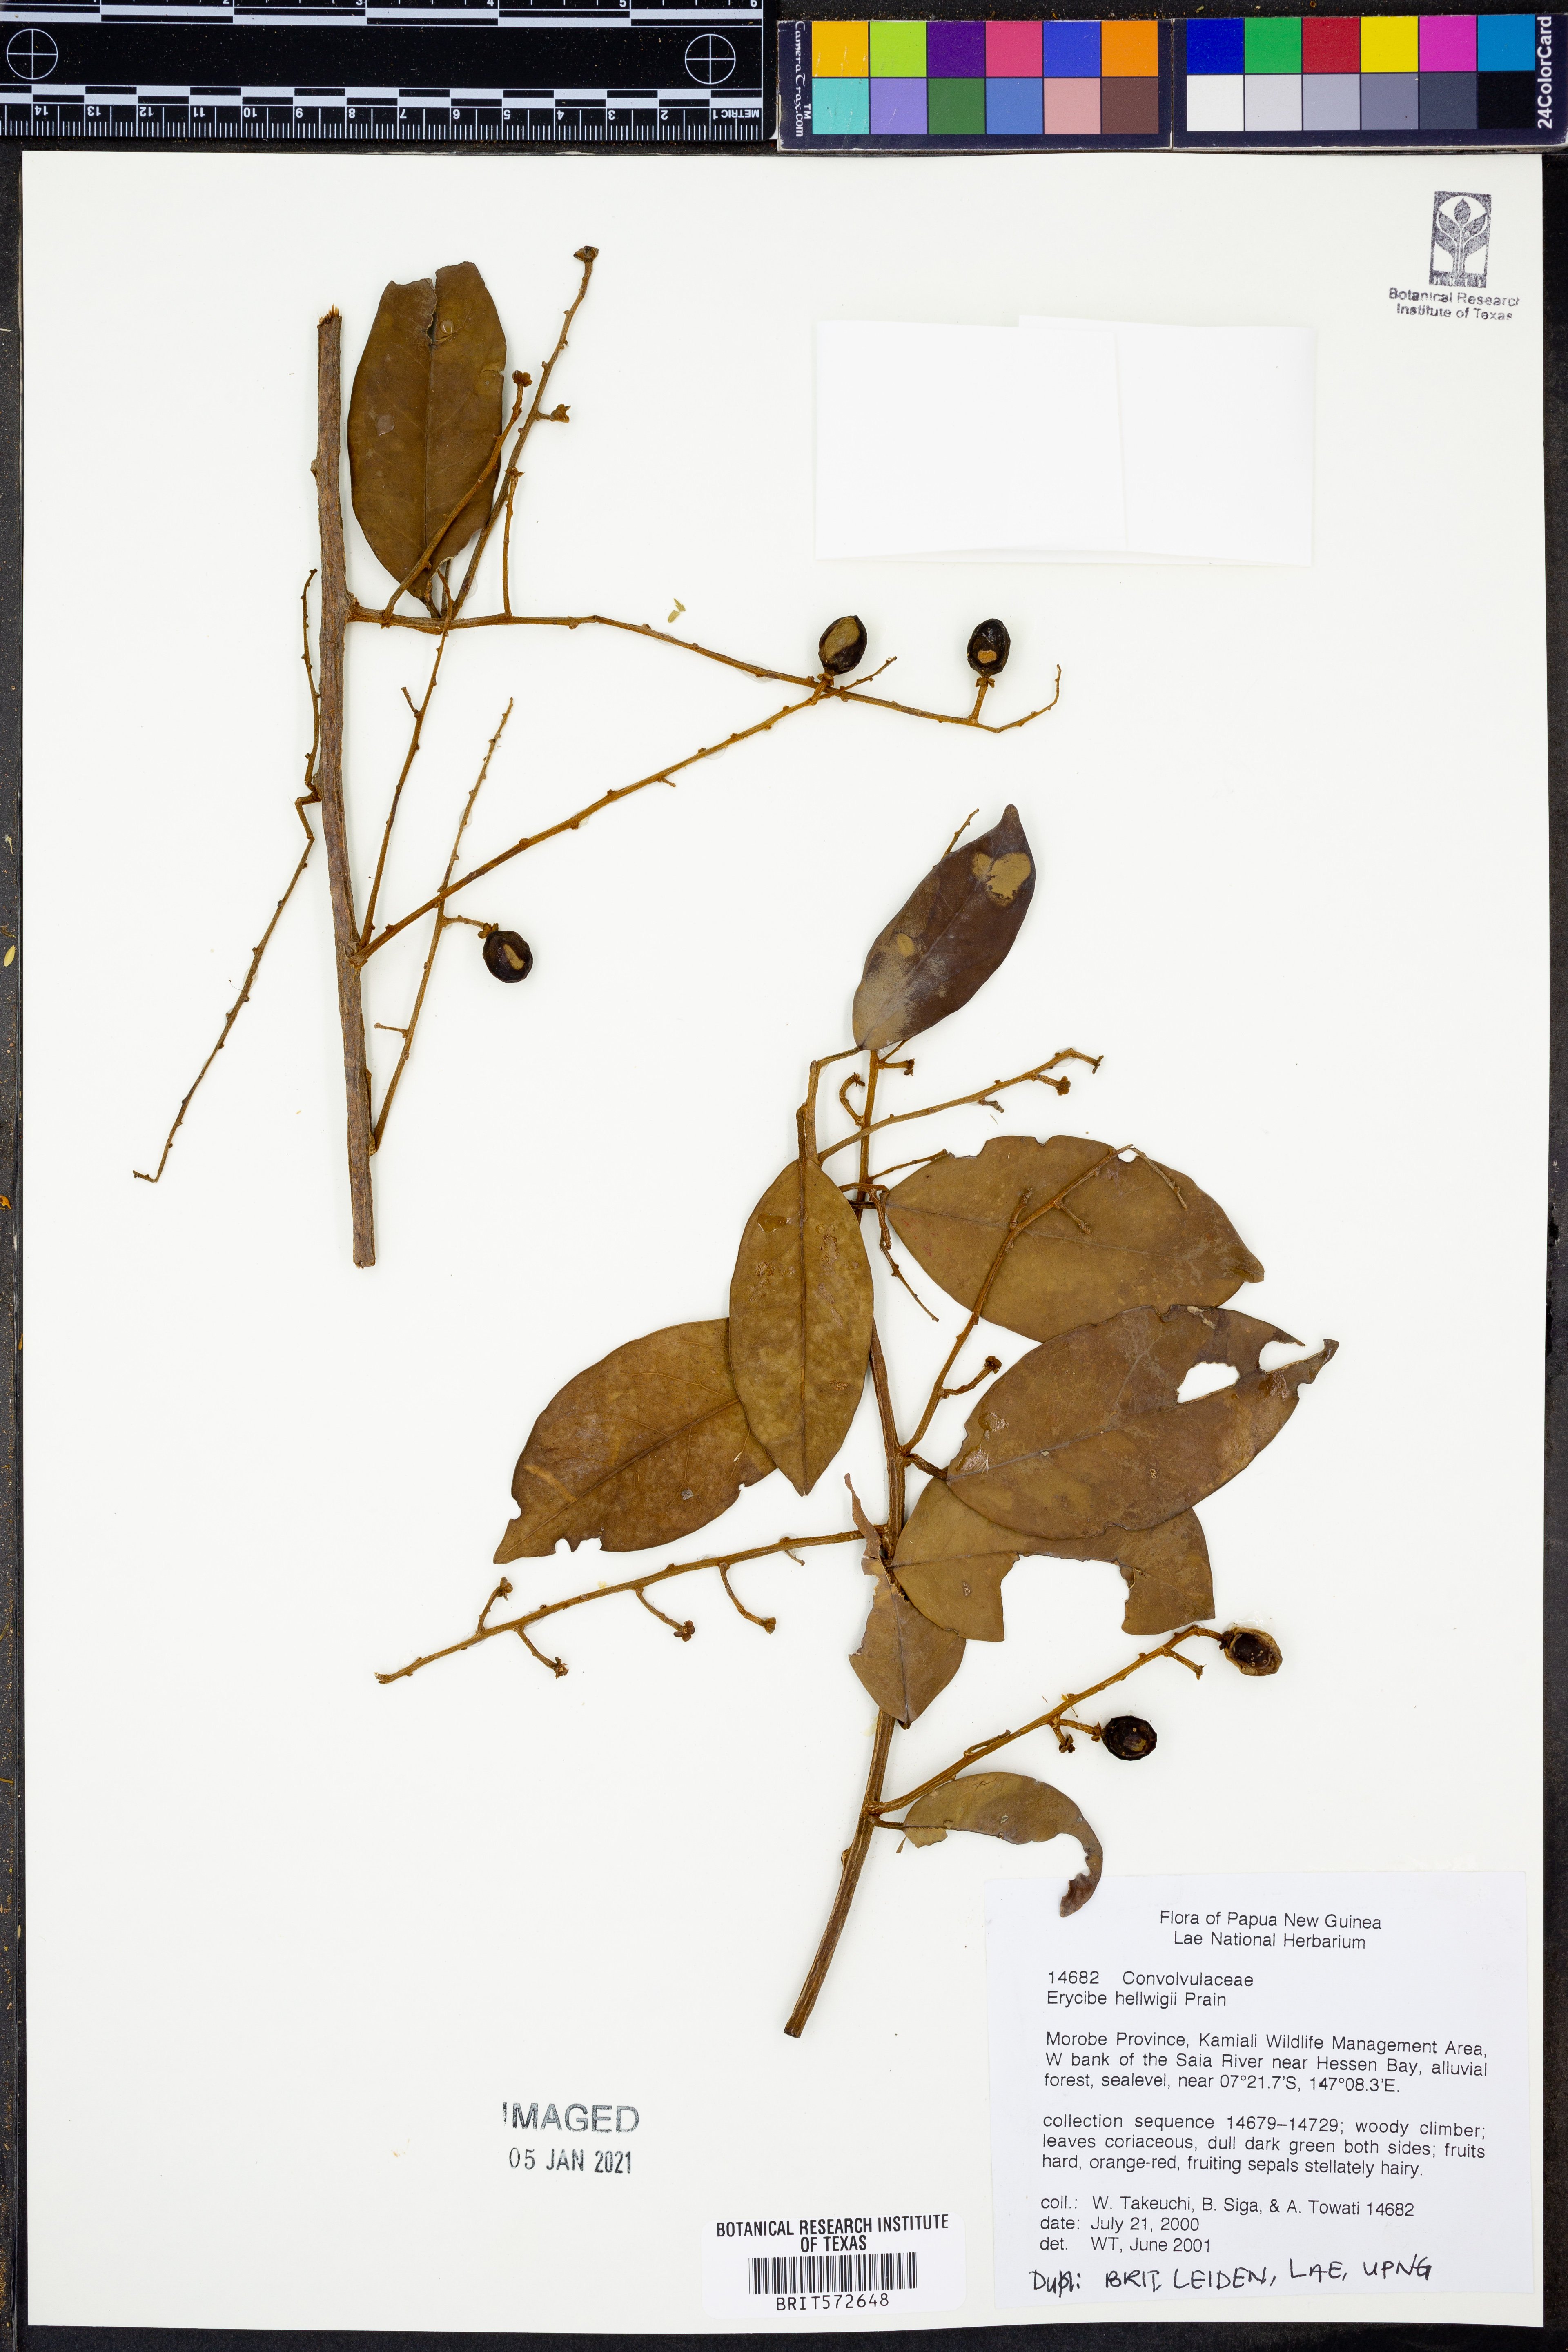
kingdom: Plantae
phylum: Tracheophyta
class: Magnoliopsida
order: Solanales
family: Convolvulaceae
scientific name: Convolvulaceae
